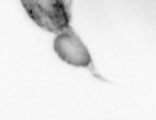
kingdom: Animalia
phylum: Arthropoda
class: Copepoda
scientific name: Copepoda
